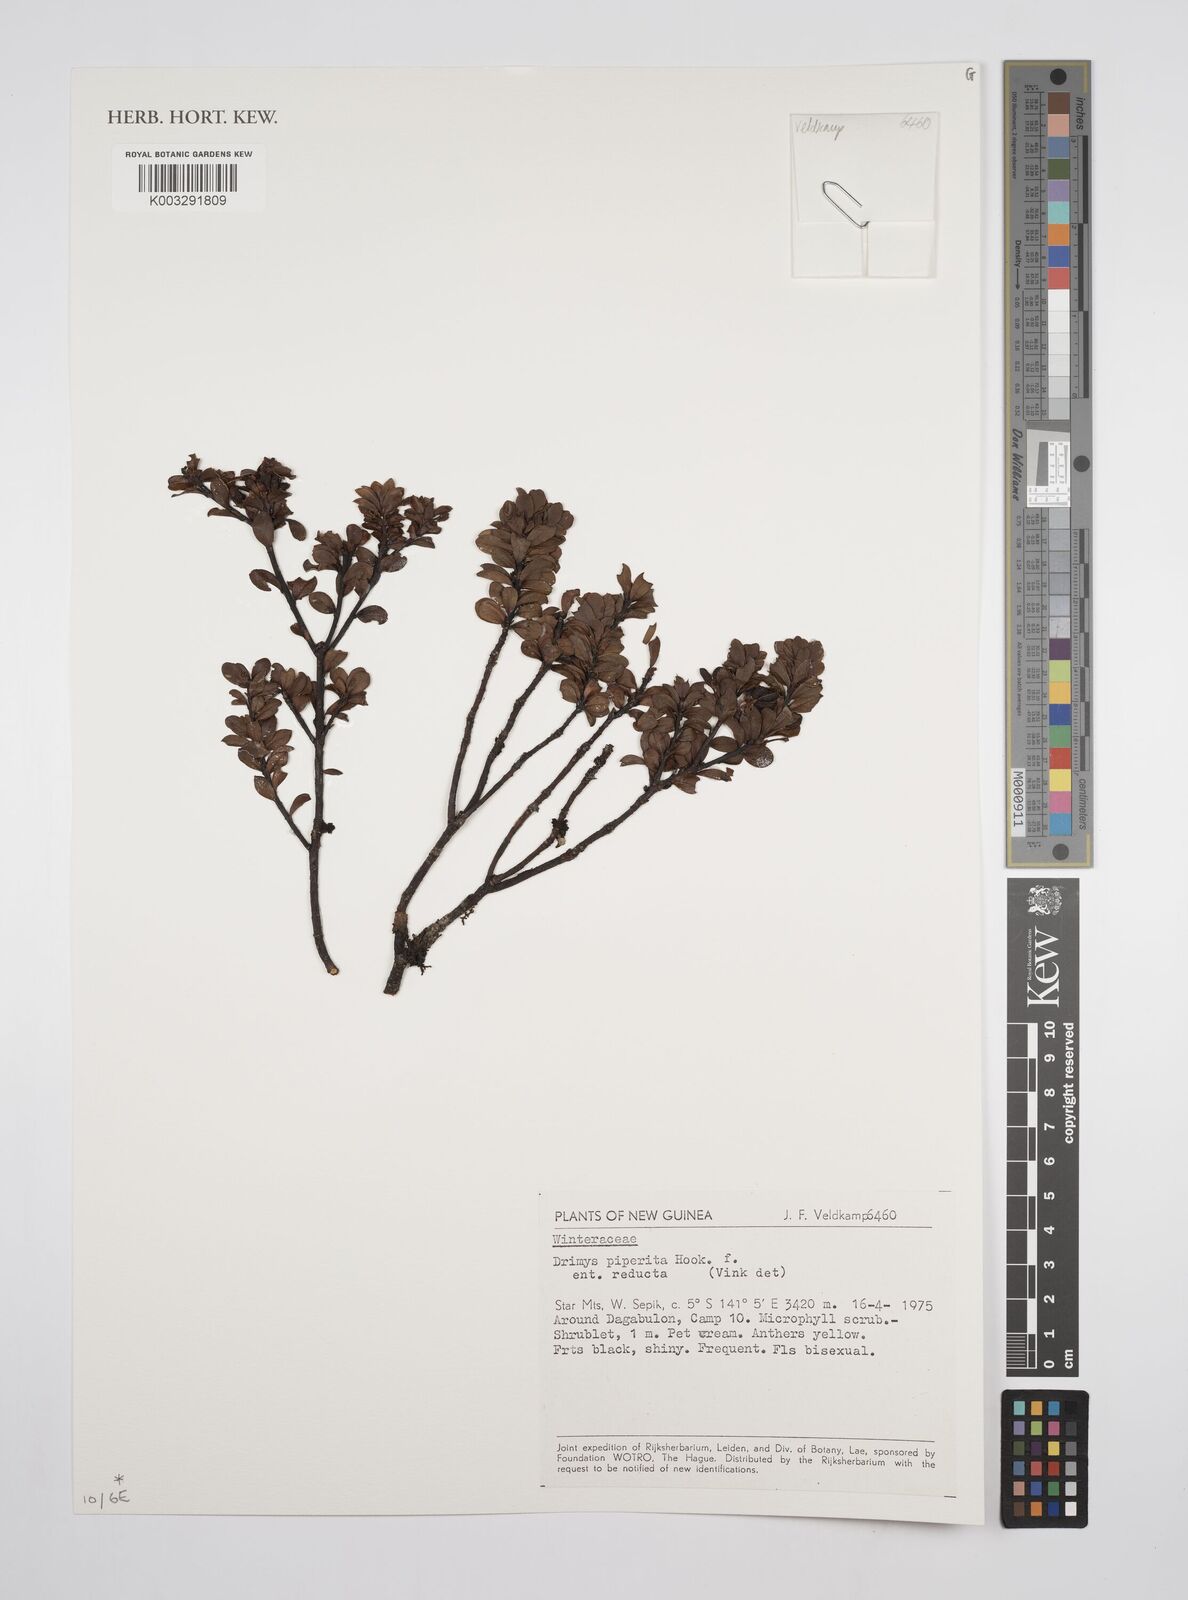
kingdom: Plantae
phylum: Tracheophyta
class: Magnoliopsida
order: Canellales
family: Winteraceae
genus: Drimys
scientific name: Drimys piperita
